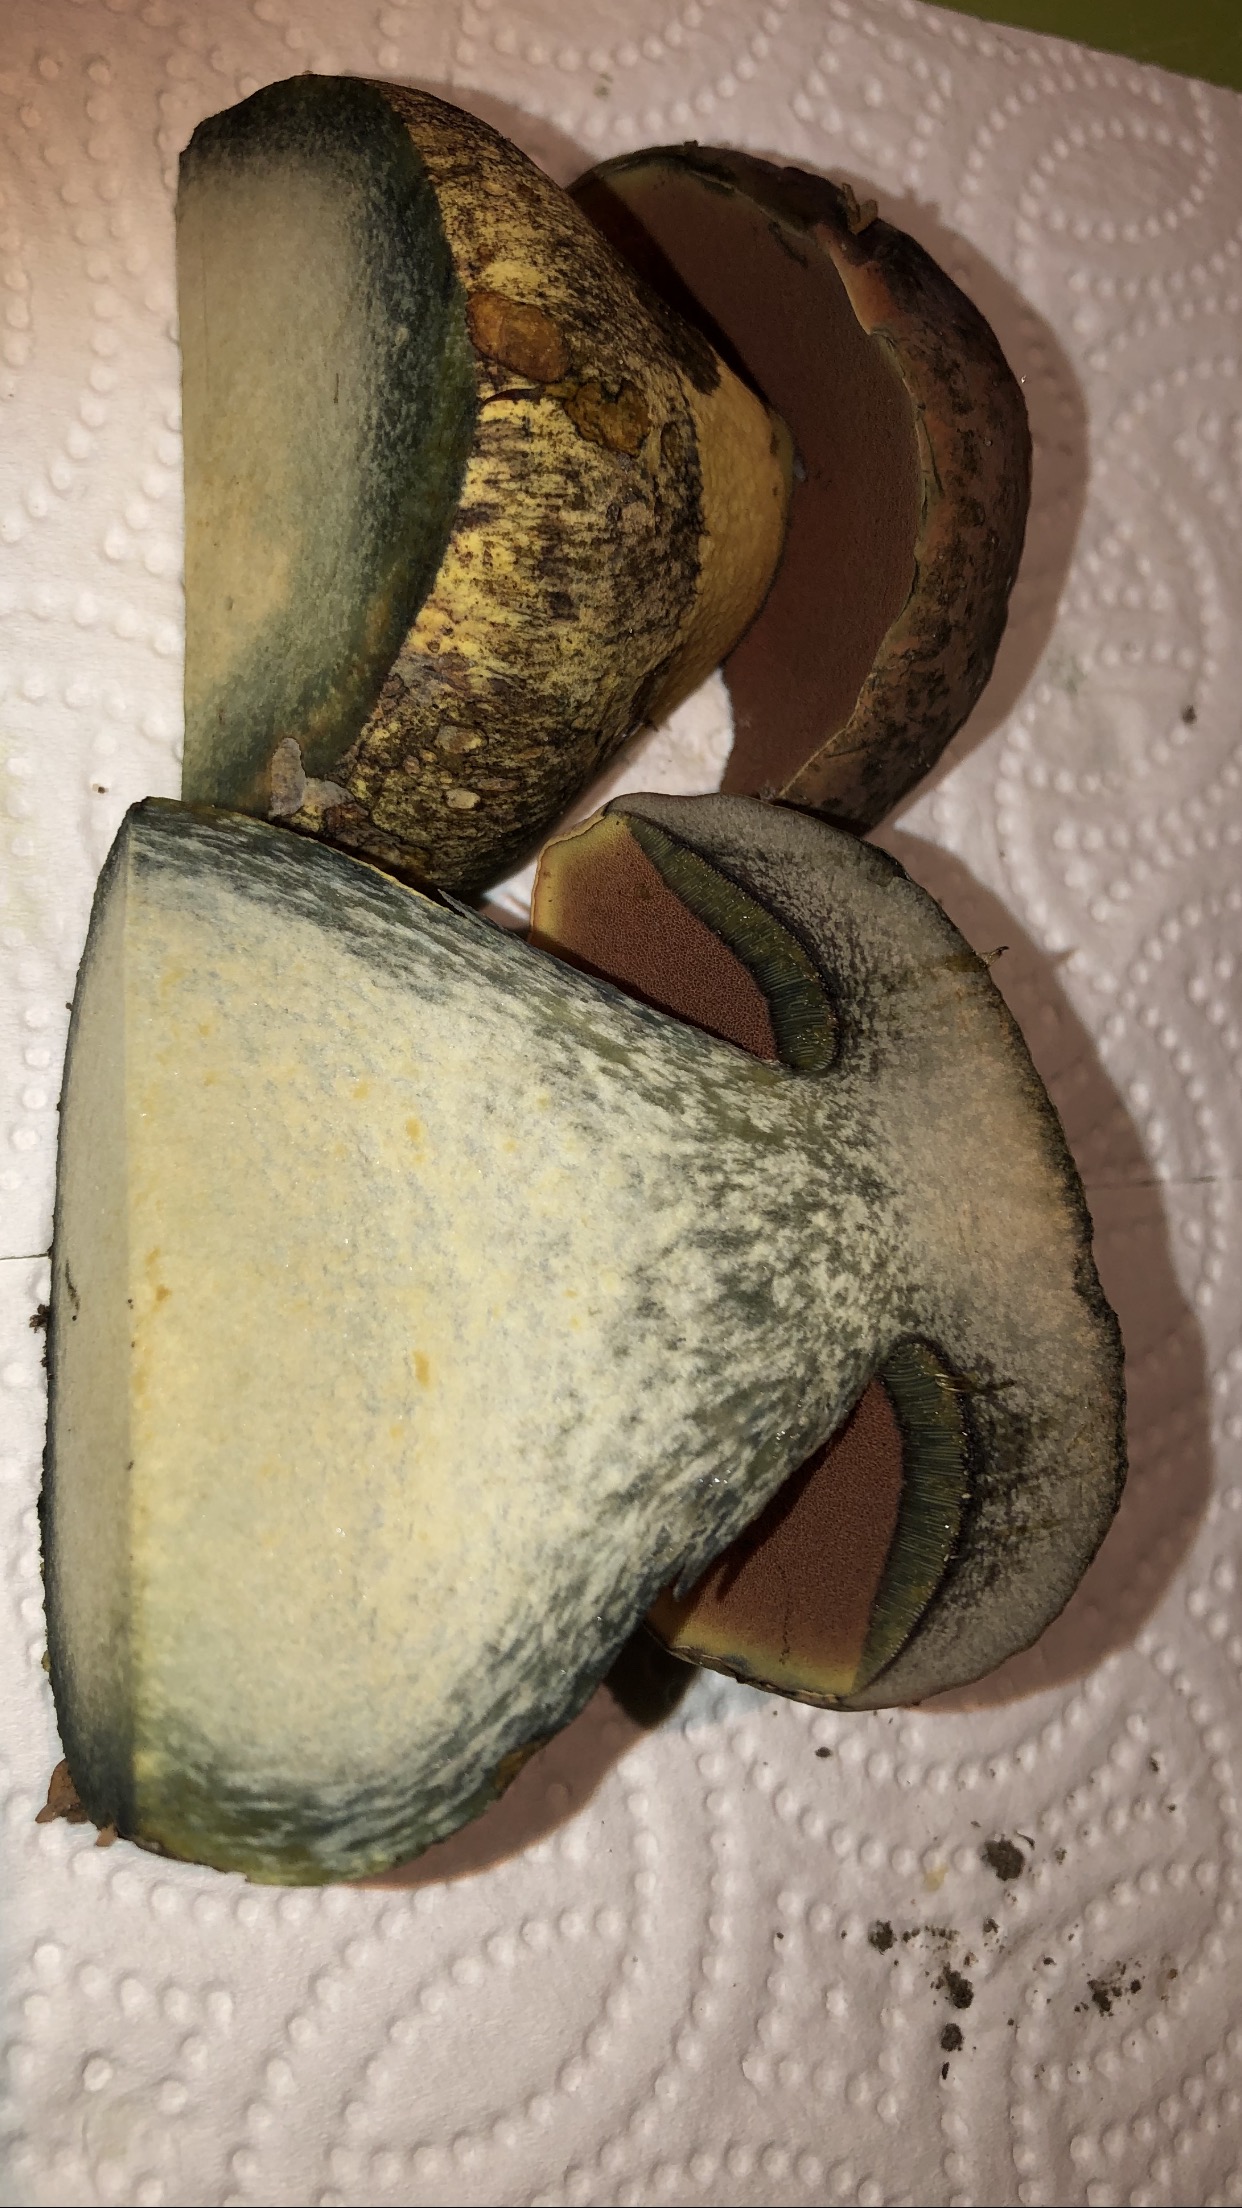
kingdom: Fungi
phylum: Basidiomycota
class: Agaricomycetes
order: Boletales
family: Boletaceae
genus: Suillellus
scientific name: Suillellus luridus
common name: netstokket indigorørhat
